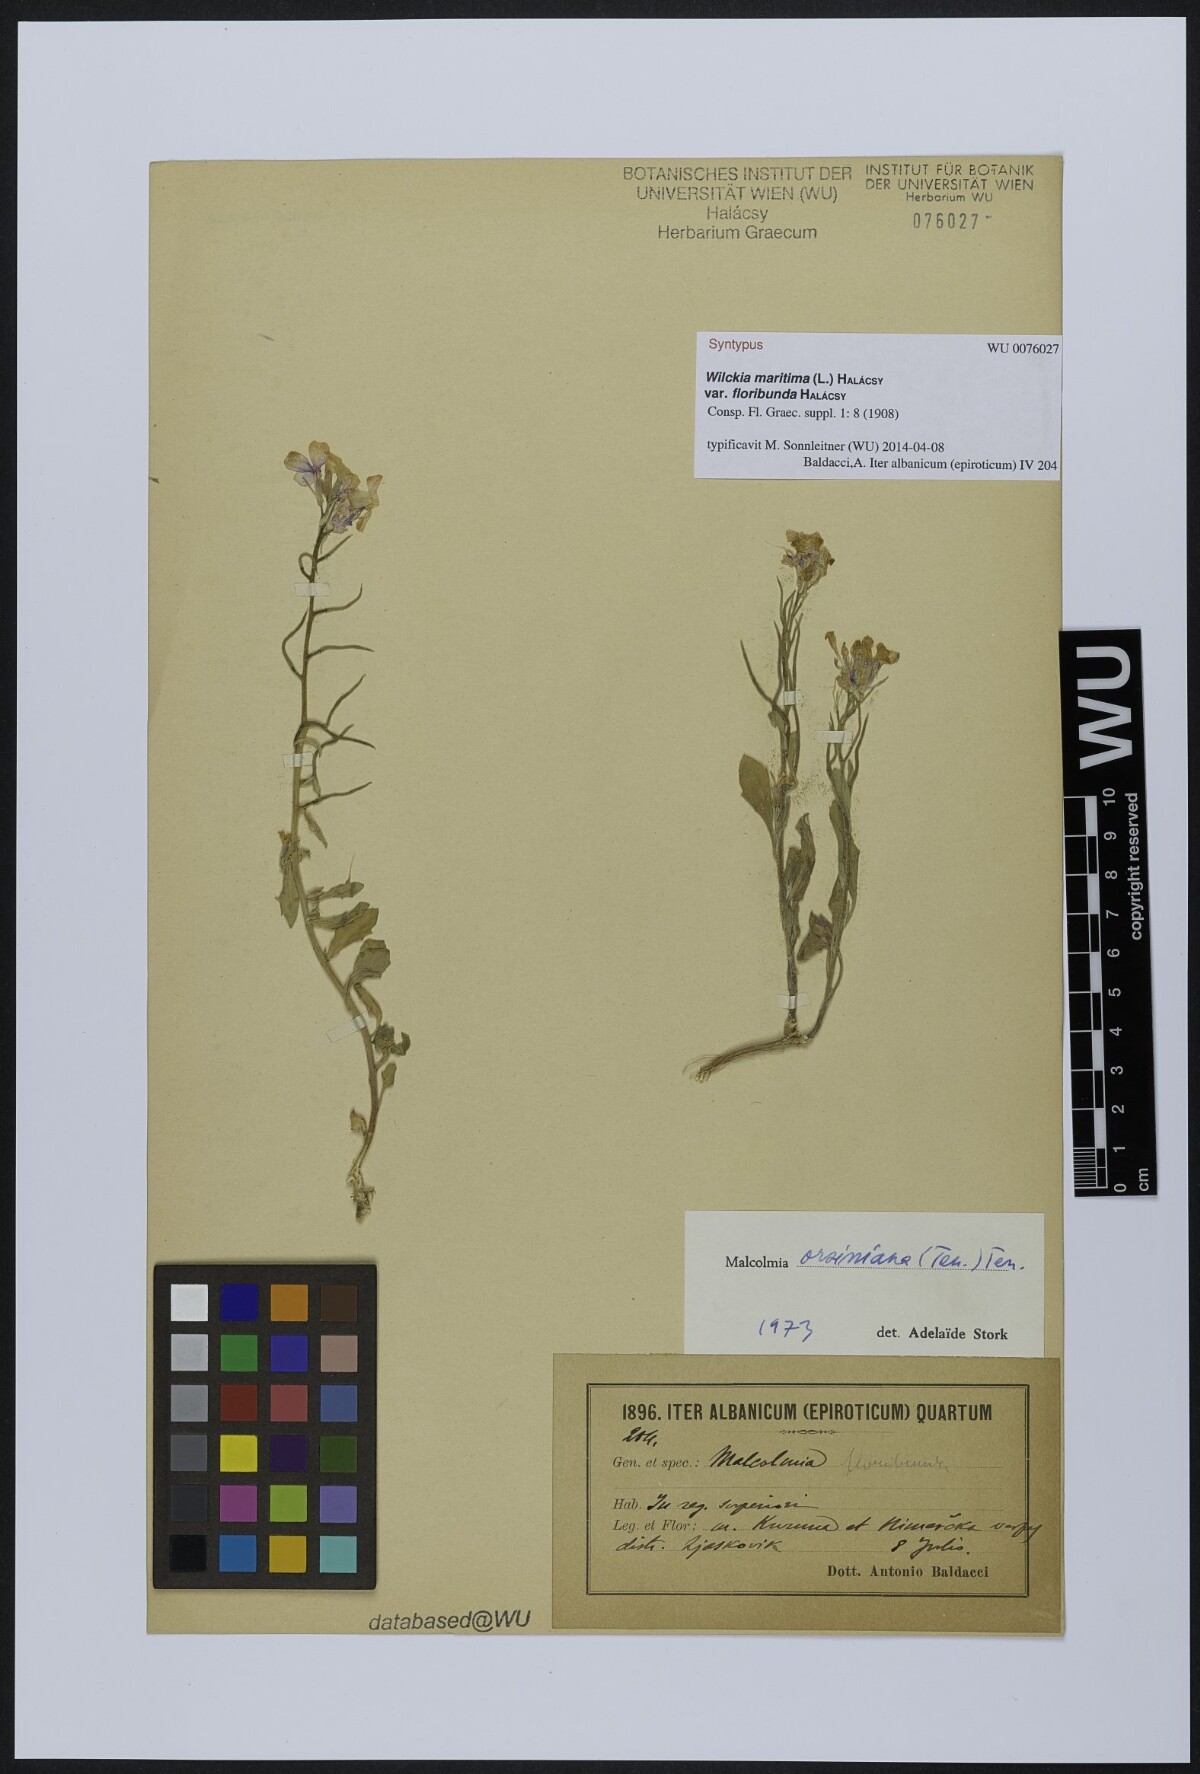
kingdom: Plantae
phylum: Tracheophyta
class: Magnoliopsida
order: Brassicales
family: Brassicaceae
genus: Malcolmia
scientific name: Malcolmia orsiniana
